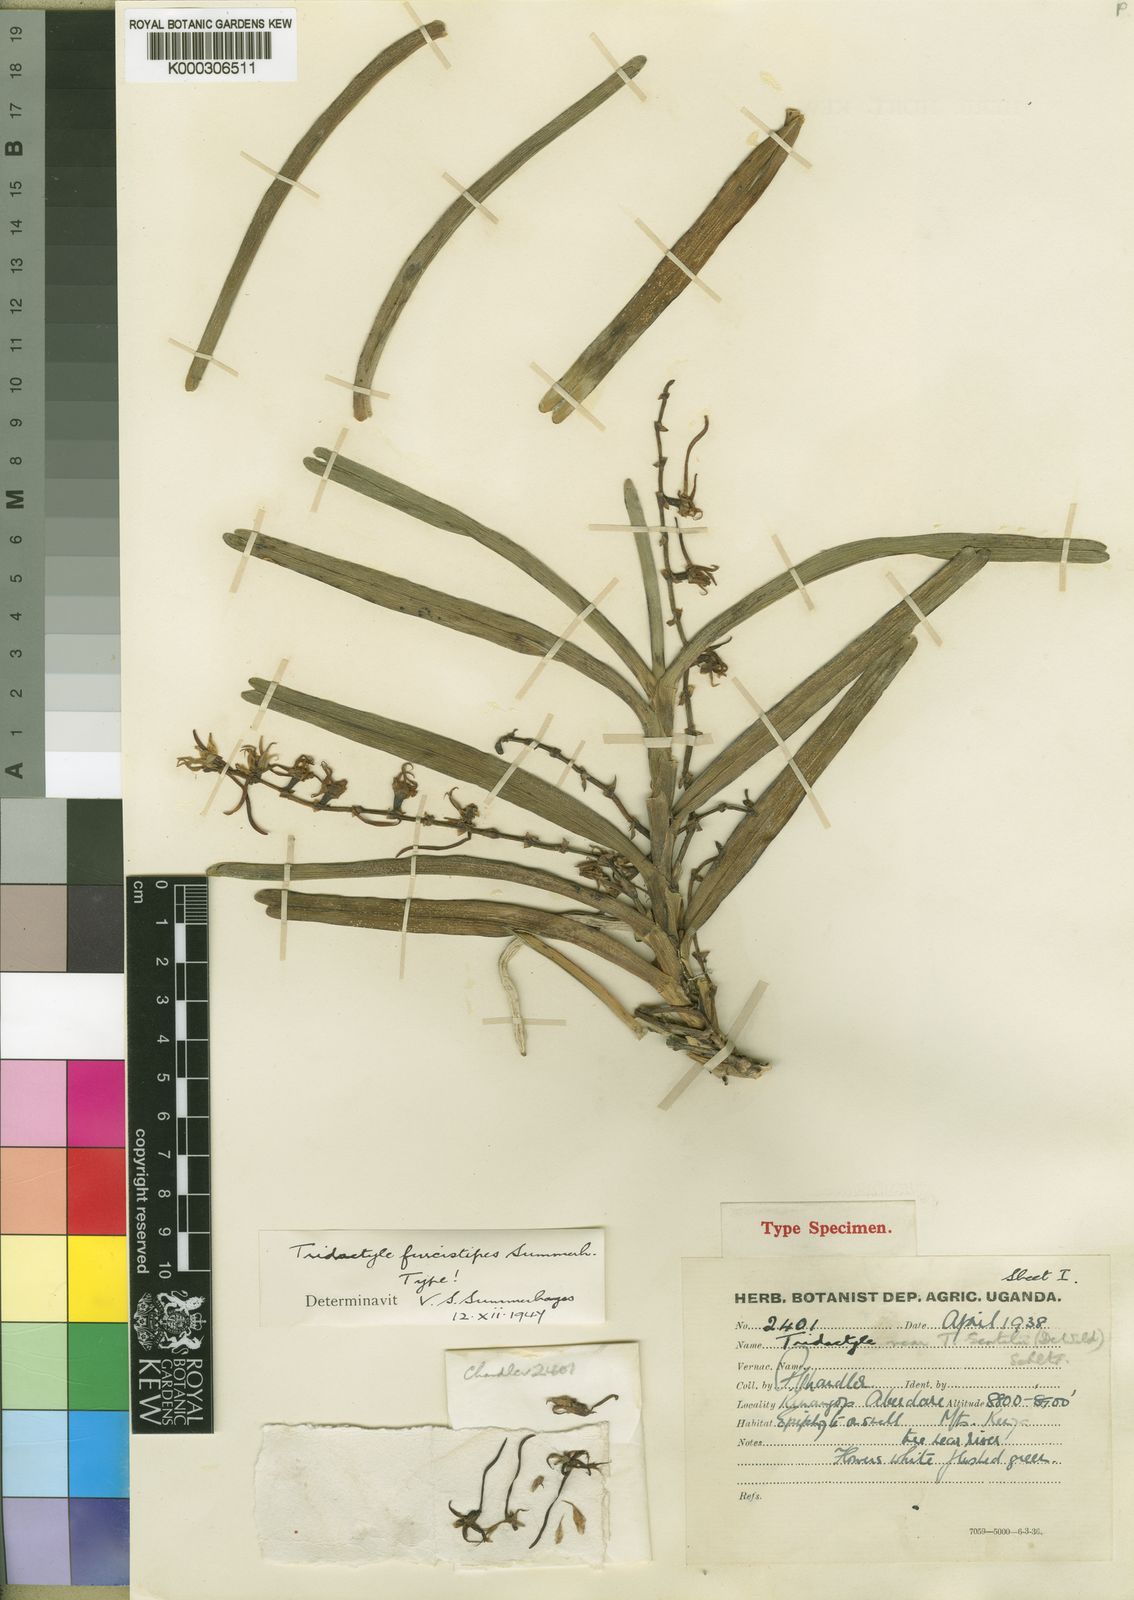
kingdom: Plantae
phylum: Tracheophyta
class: Liliopsida
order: Asparagales
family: Orchidaceae
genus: Ypsilopus
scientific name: Ypsilopus furcistipes
